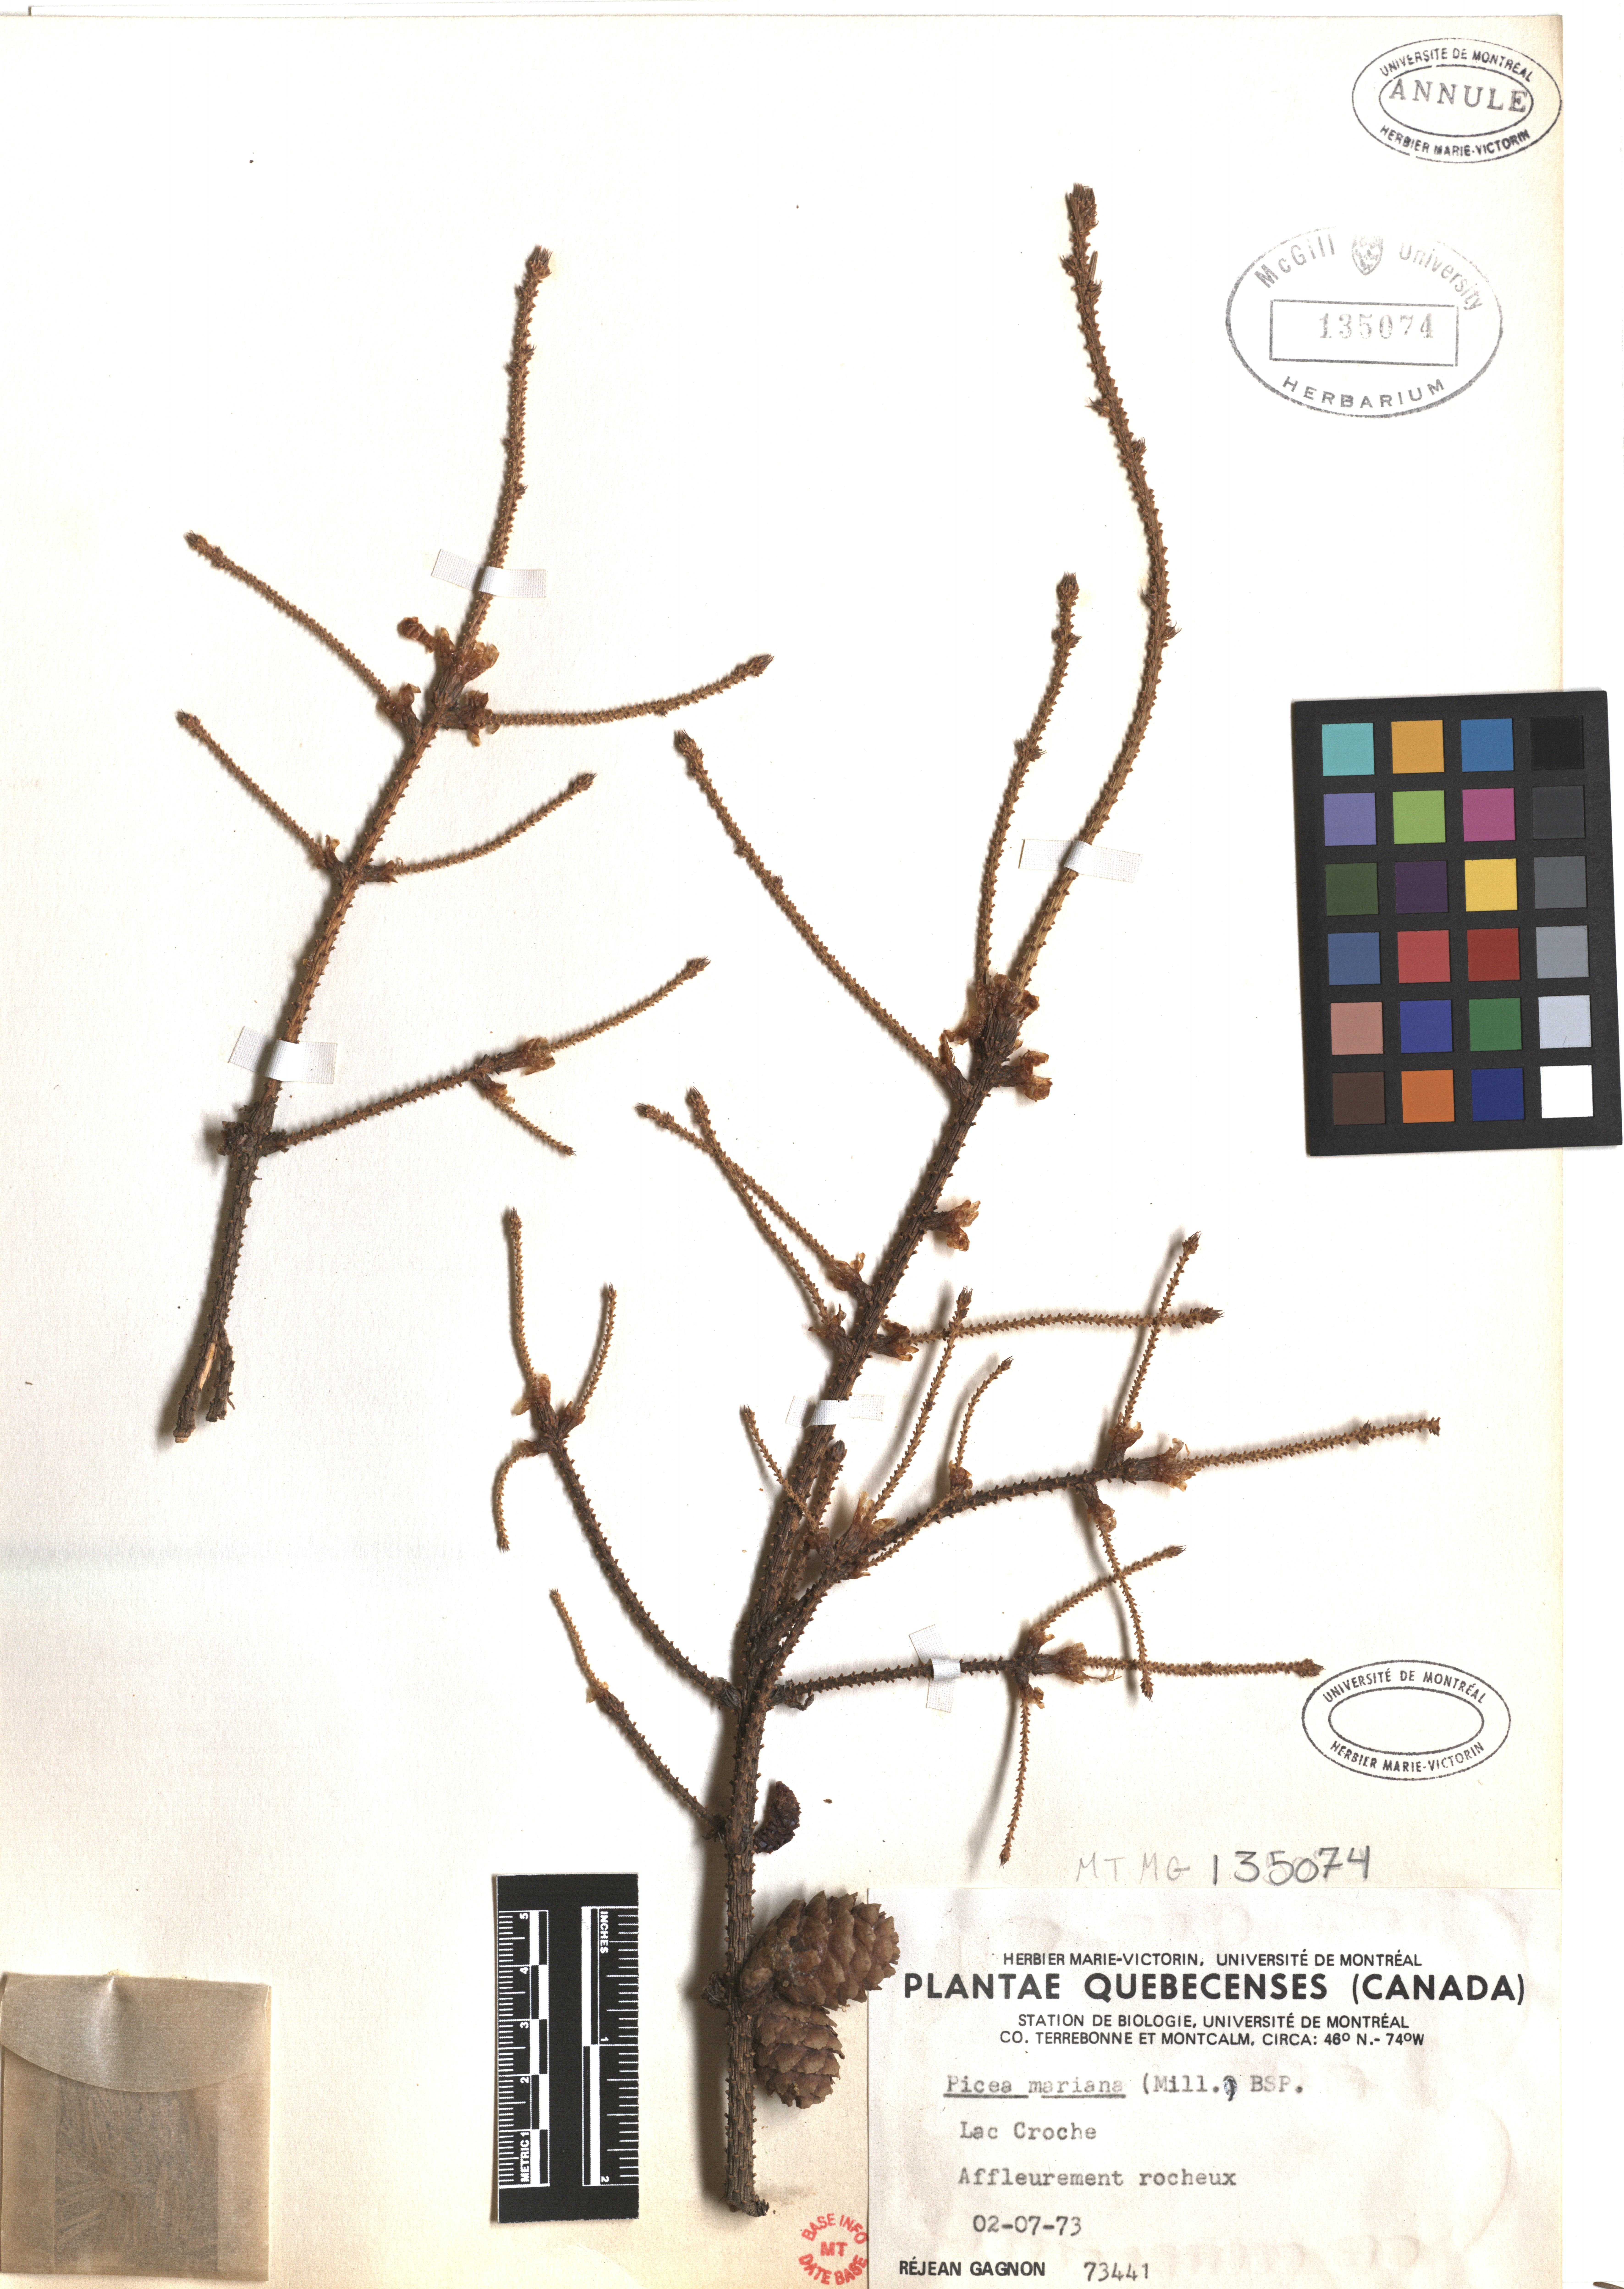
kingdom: Plantae
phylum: Tracheophyta
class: Pinopsida
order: Pinales
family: Pinaceae
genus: Picea
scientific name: Picea mariana
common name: Black spruce
